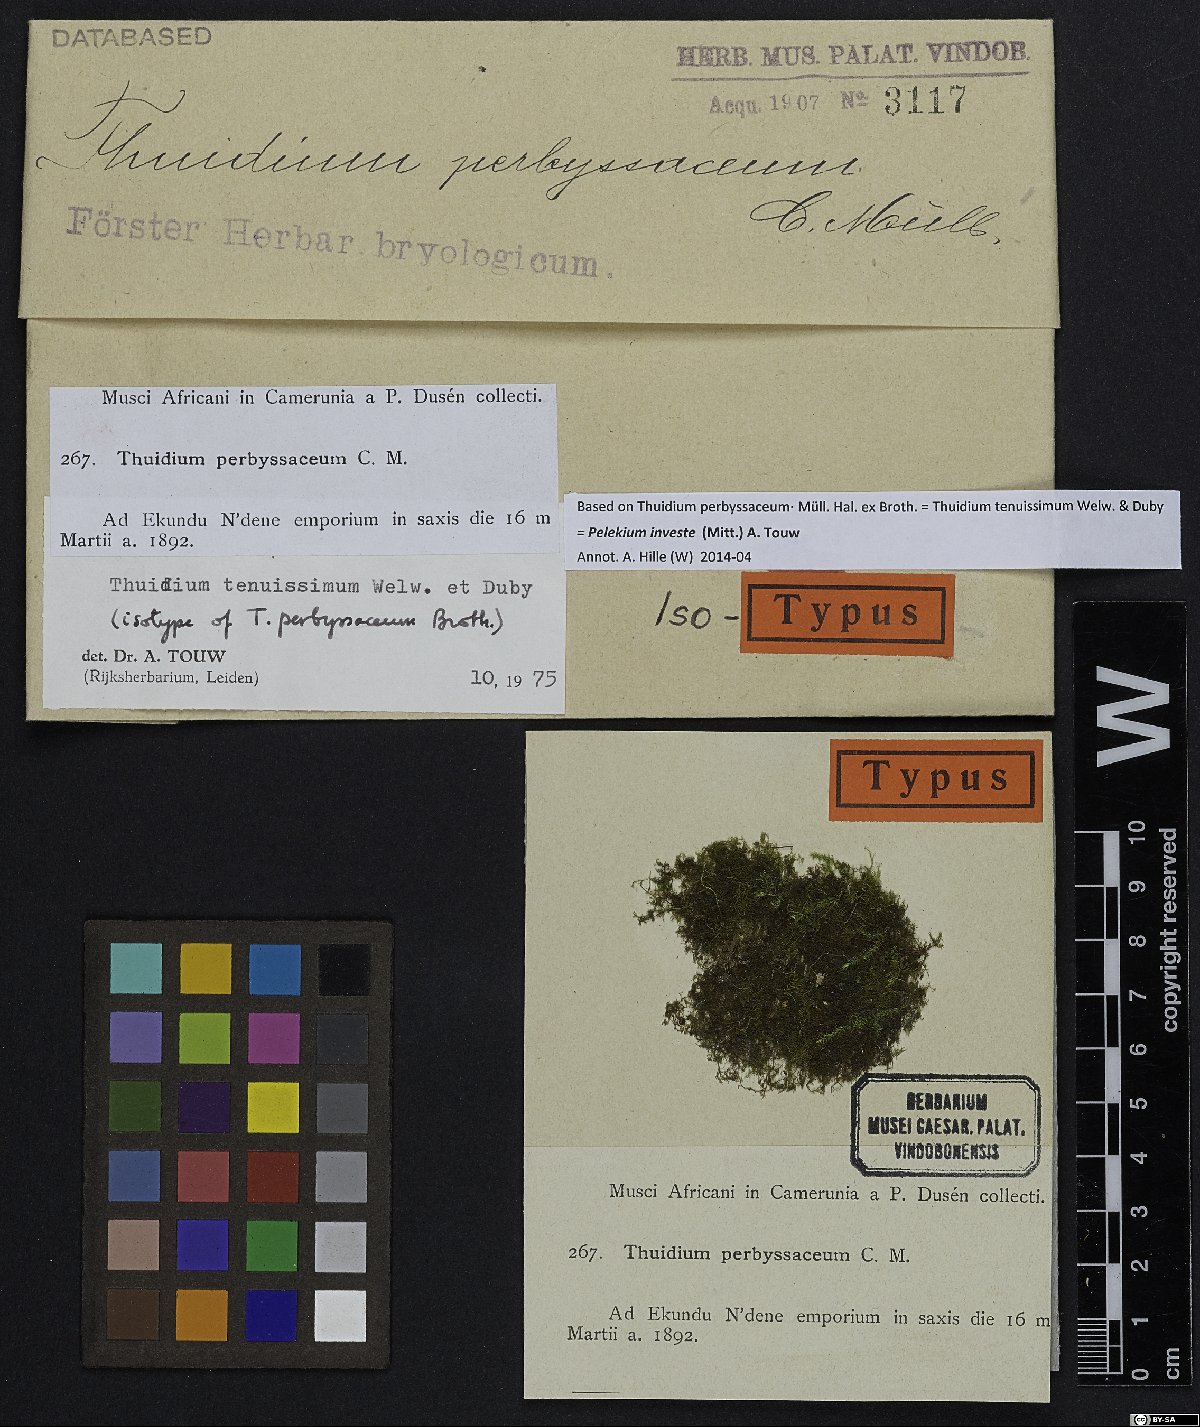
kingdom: Plantae
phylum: Bryophyta
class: Bryopsida
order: Hypnales
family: Thuidiaceae
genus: Pelekium
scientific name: Pelekium investe
